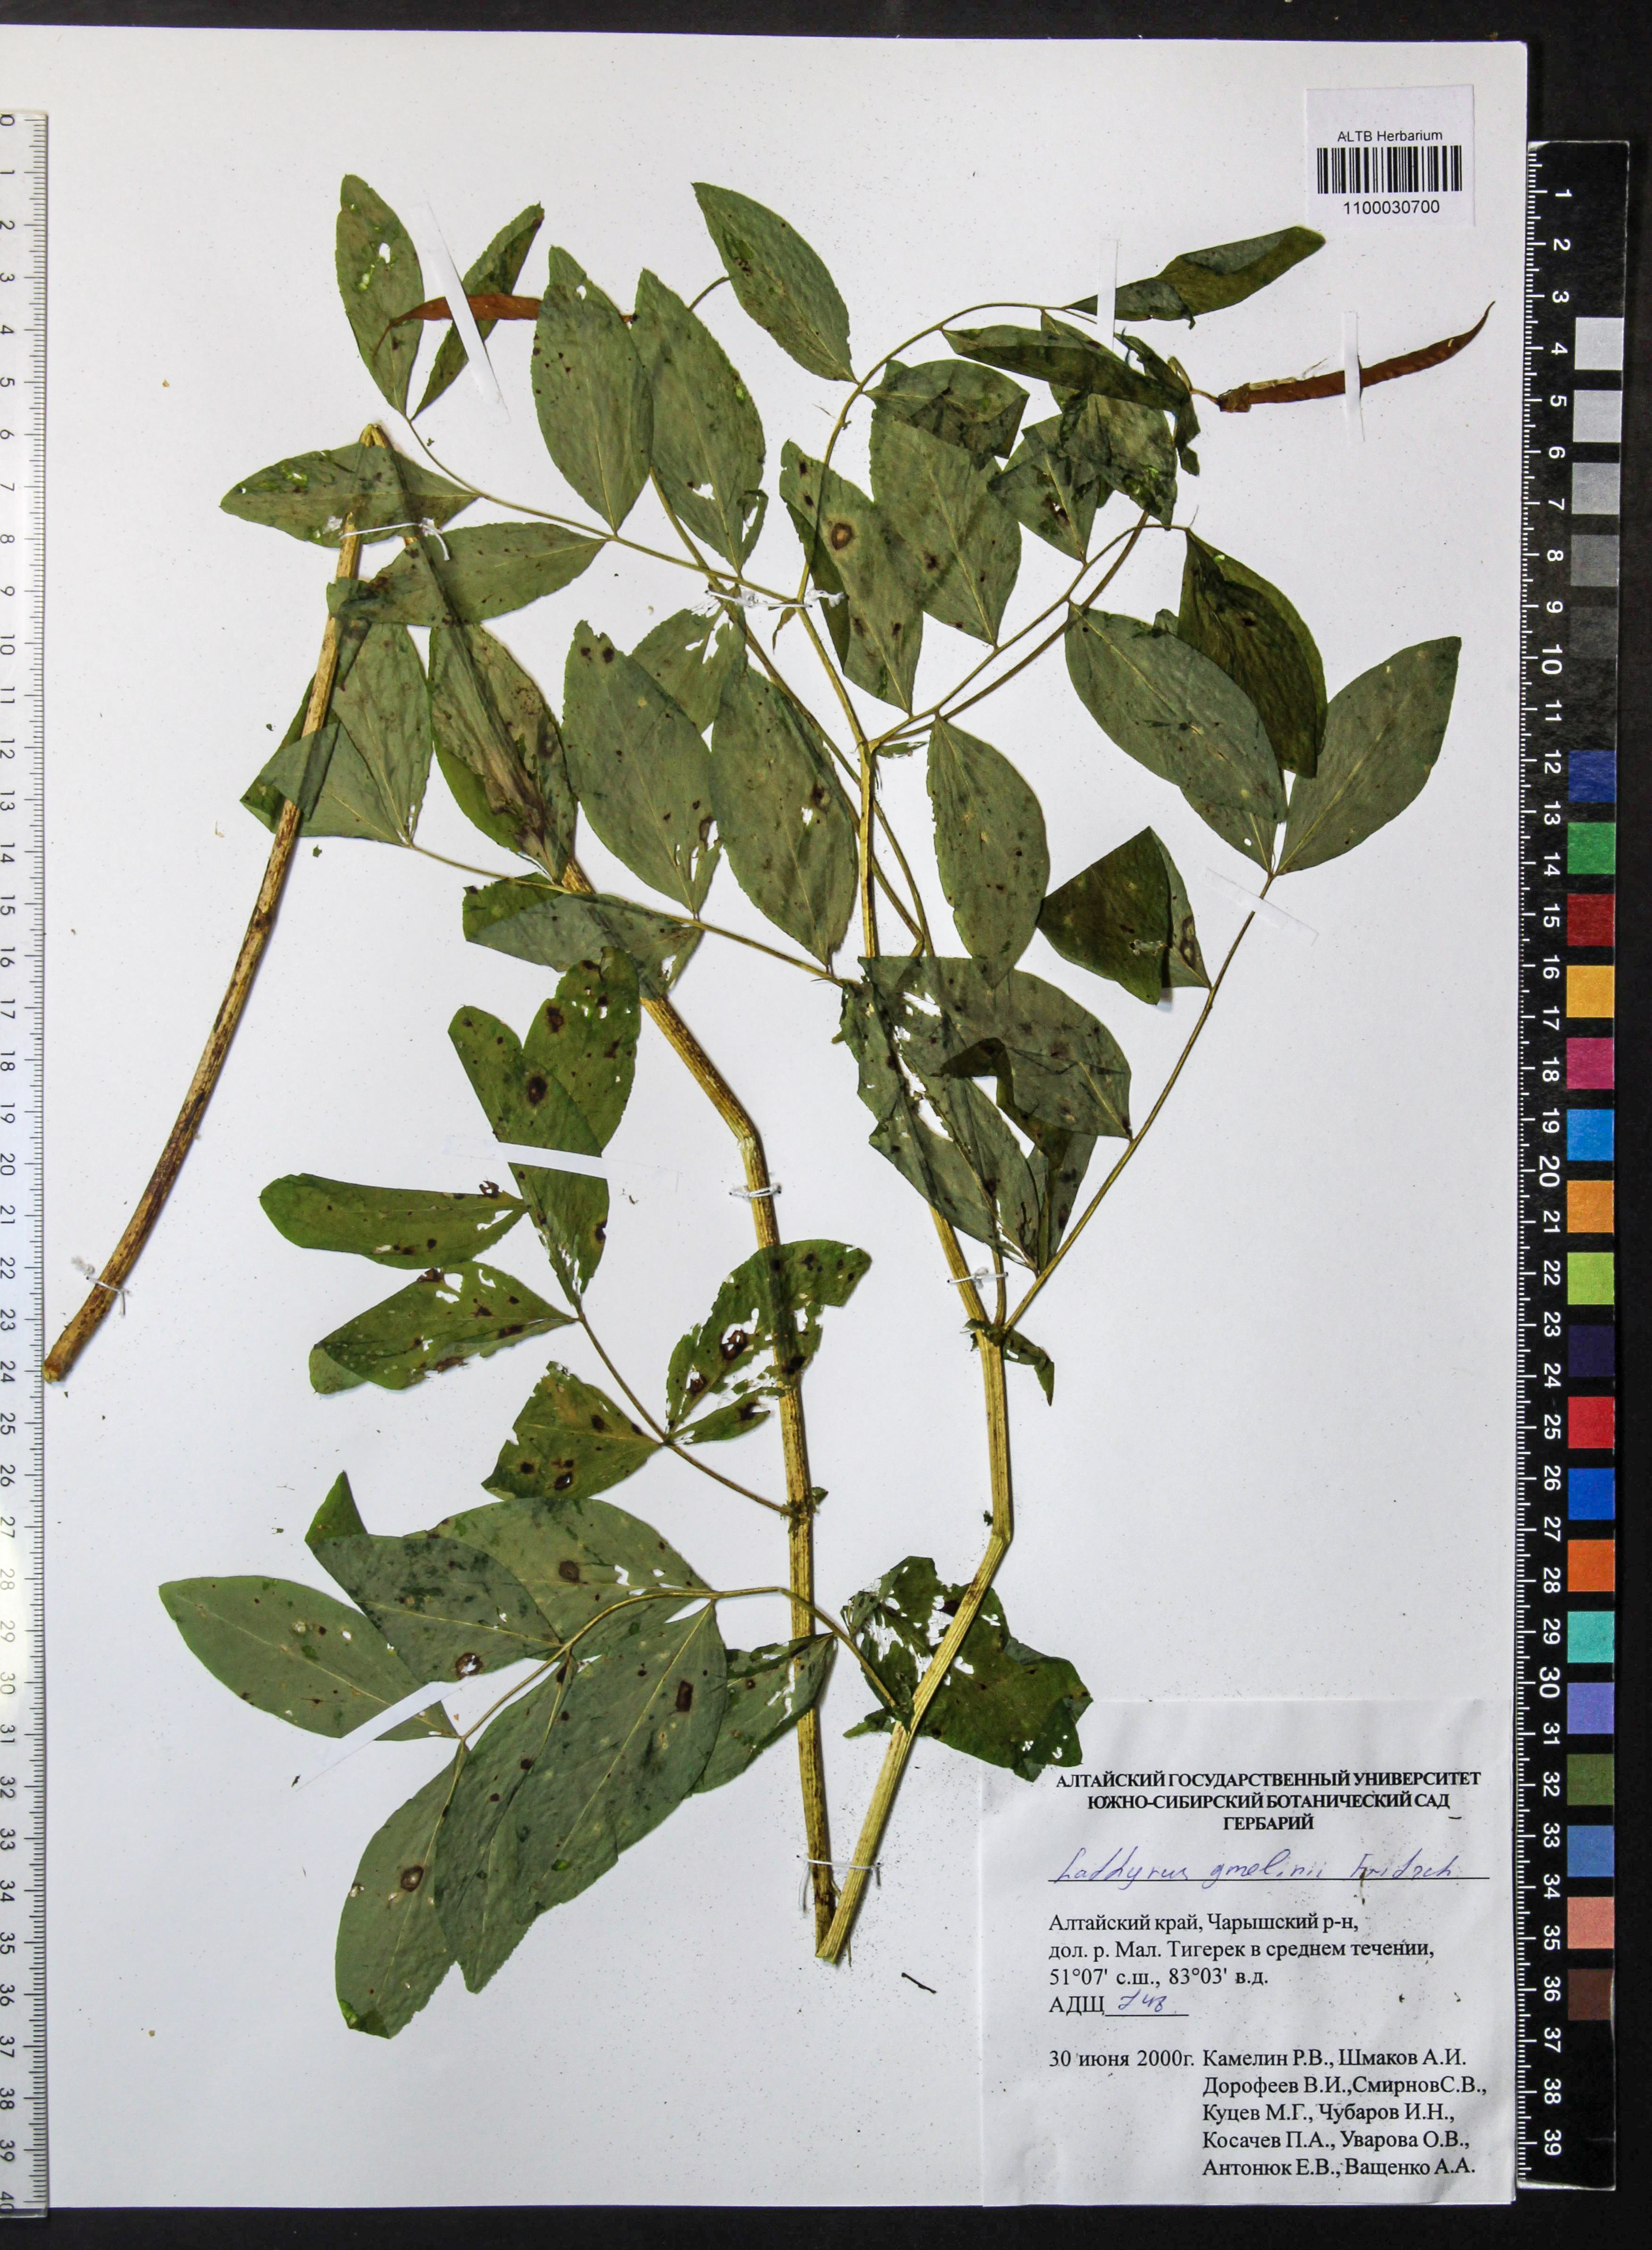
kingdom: Plantae
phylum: Tracheophyta
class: Magnoliopsida
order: Fabales
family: Fabaceae
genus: Lathyrus
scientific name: Lathyrus gmelinii
